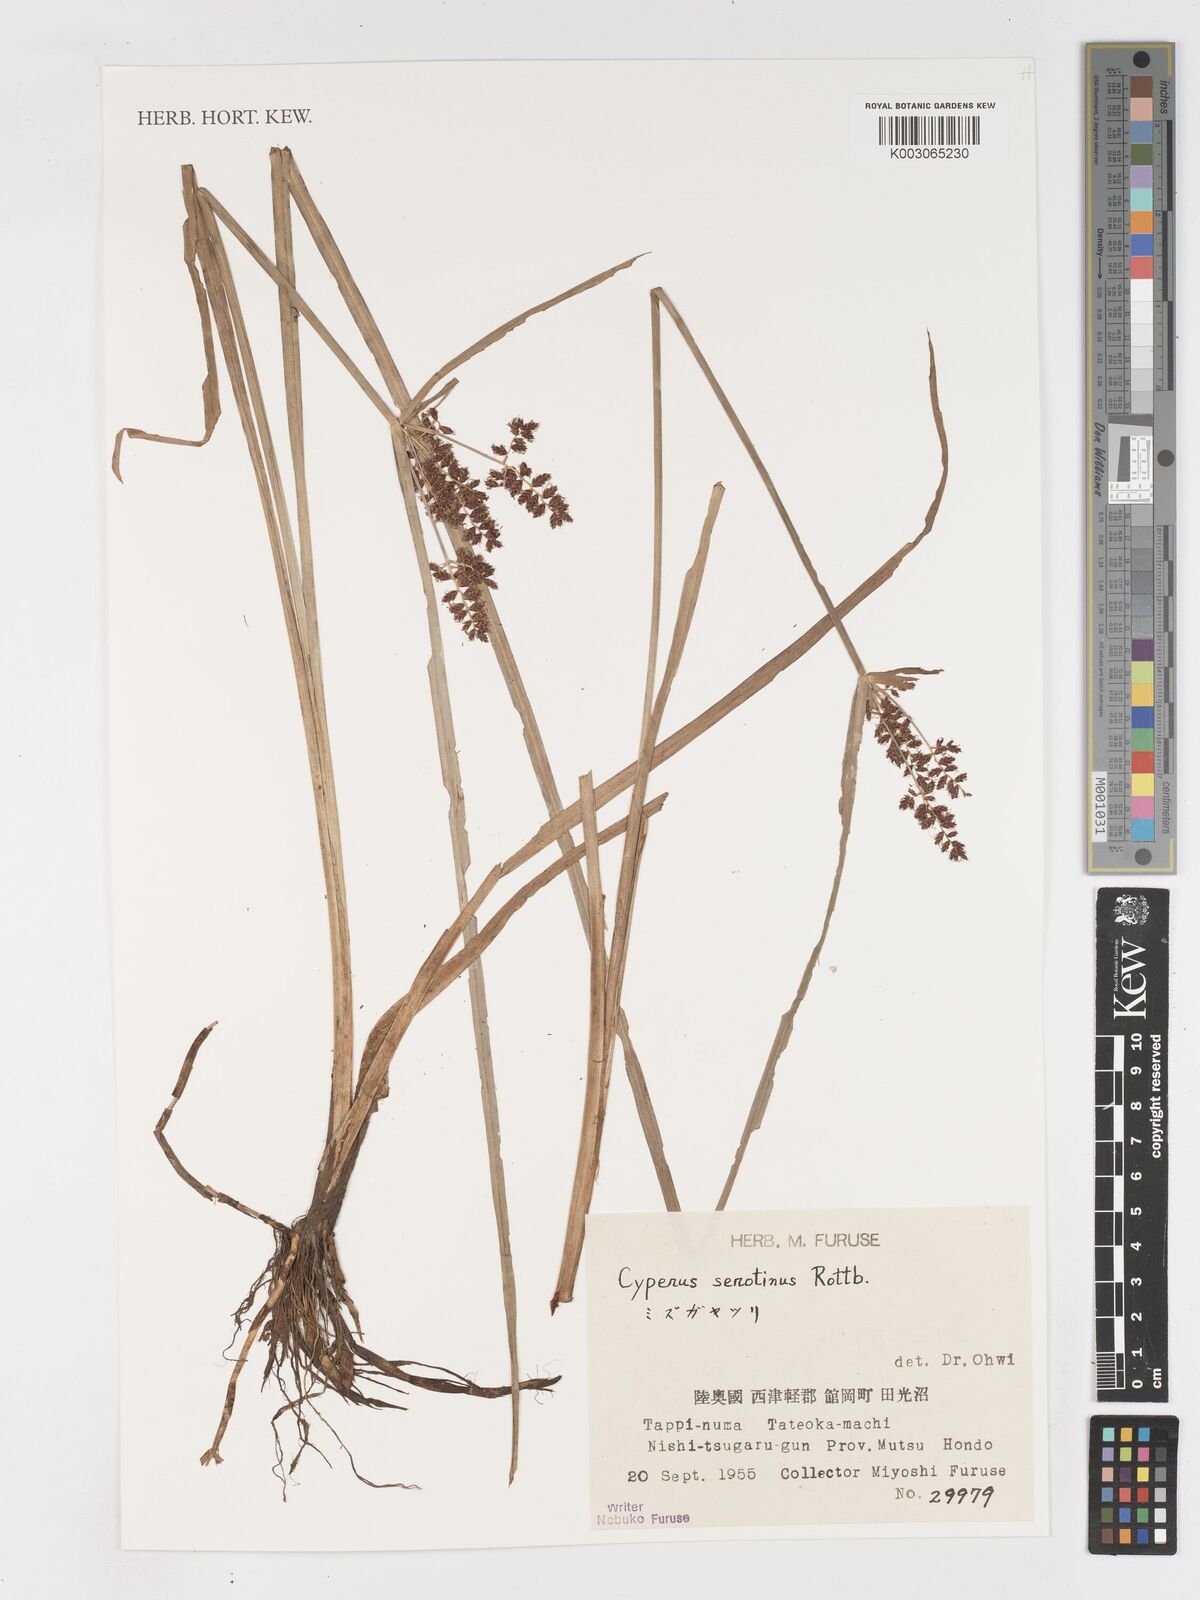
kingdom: Plantae
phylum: Tracheophyta
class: Liliopsida
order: Poales
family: Cyperaceae
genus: Cyperus
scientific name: Cyperus serotinus
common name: Tidalmarsh flatsedge
